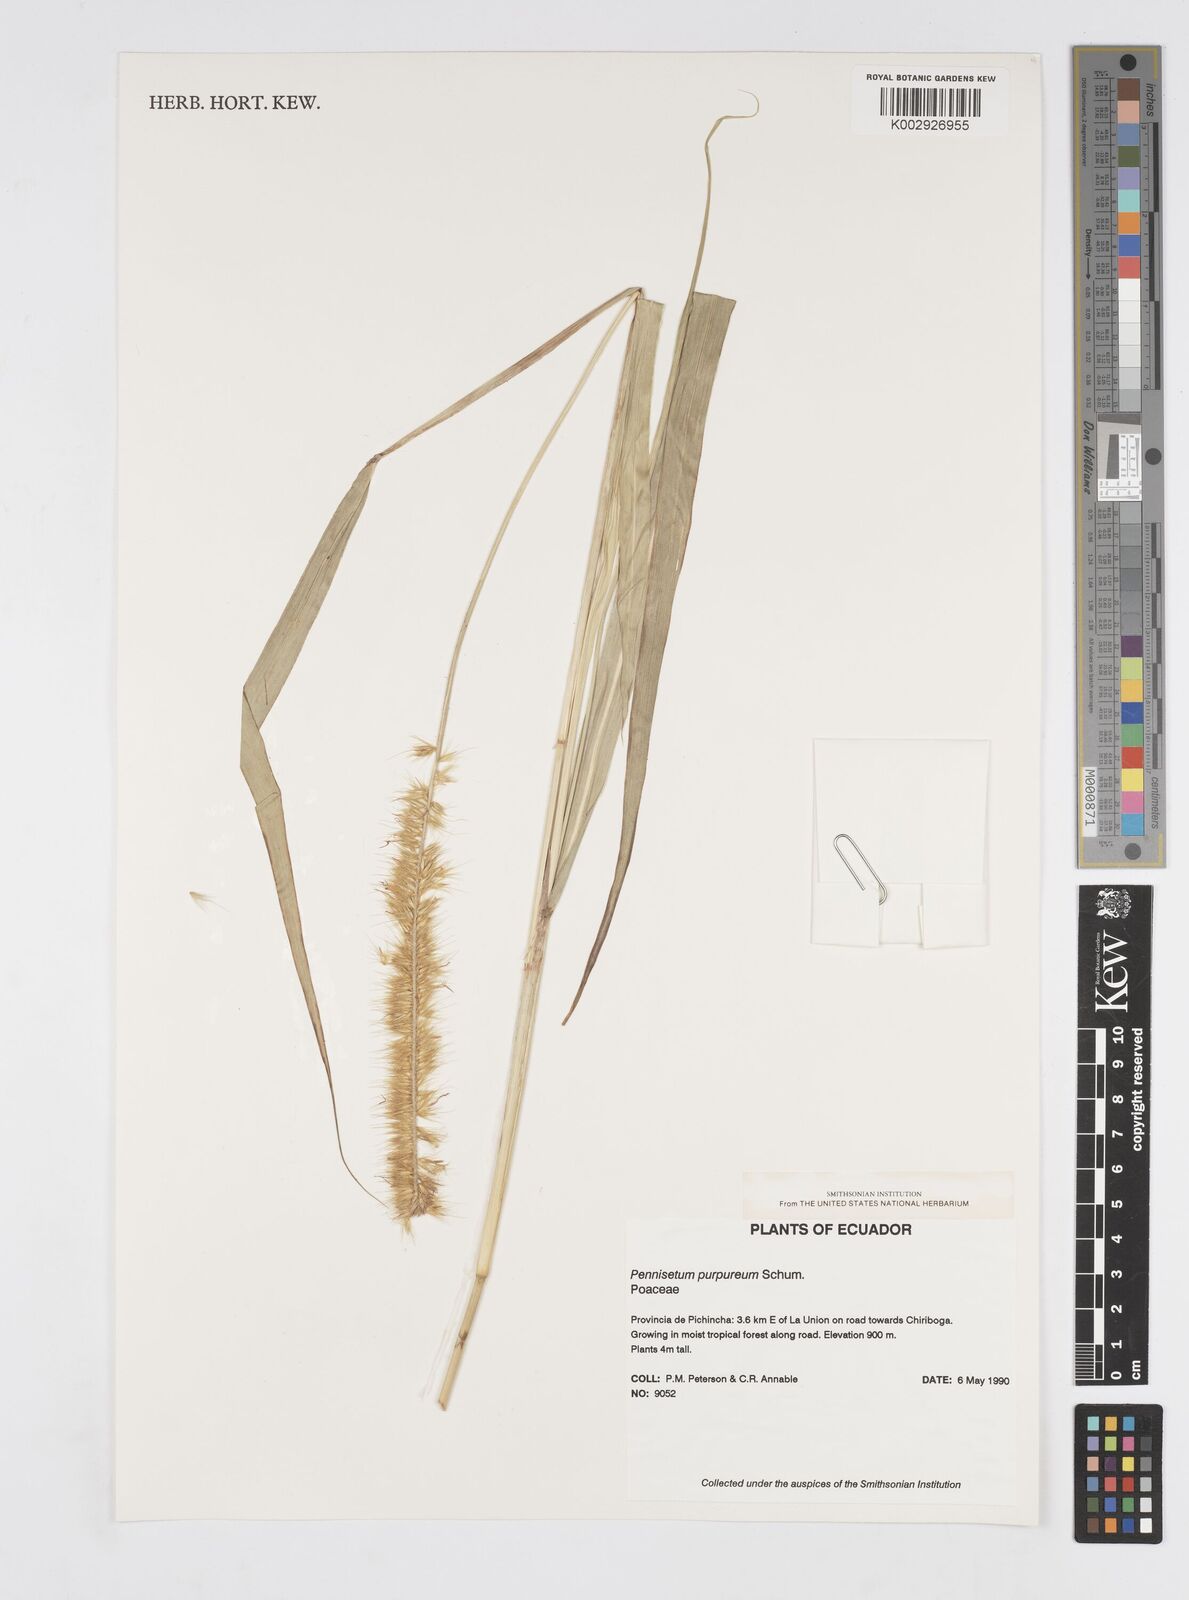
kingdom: Plantae
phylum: Tracheophyta
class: Liliopsida
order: Poales
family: Poaceae
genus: Cenchrus
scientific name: Cenchrus Pennisetum spec
